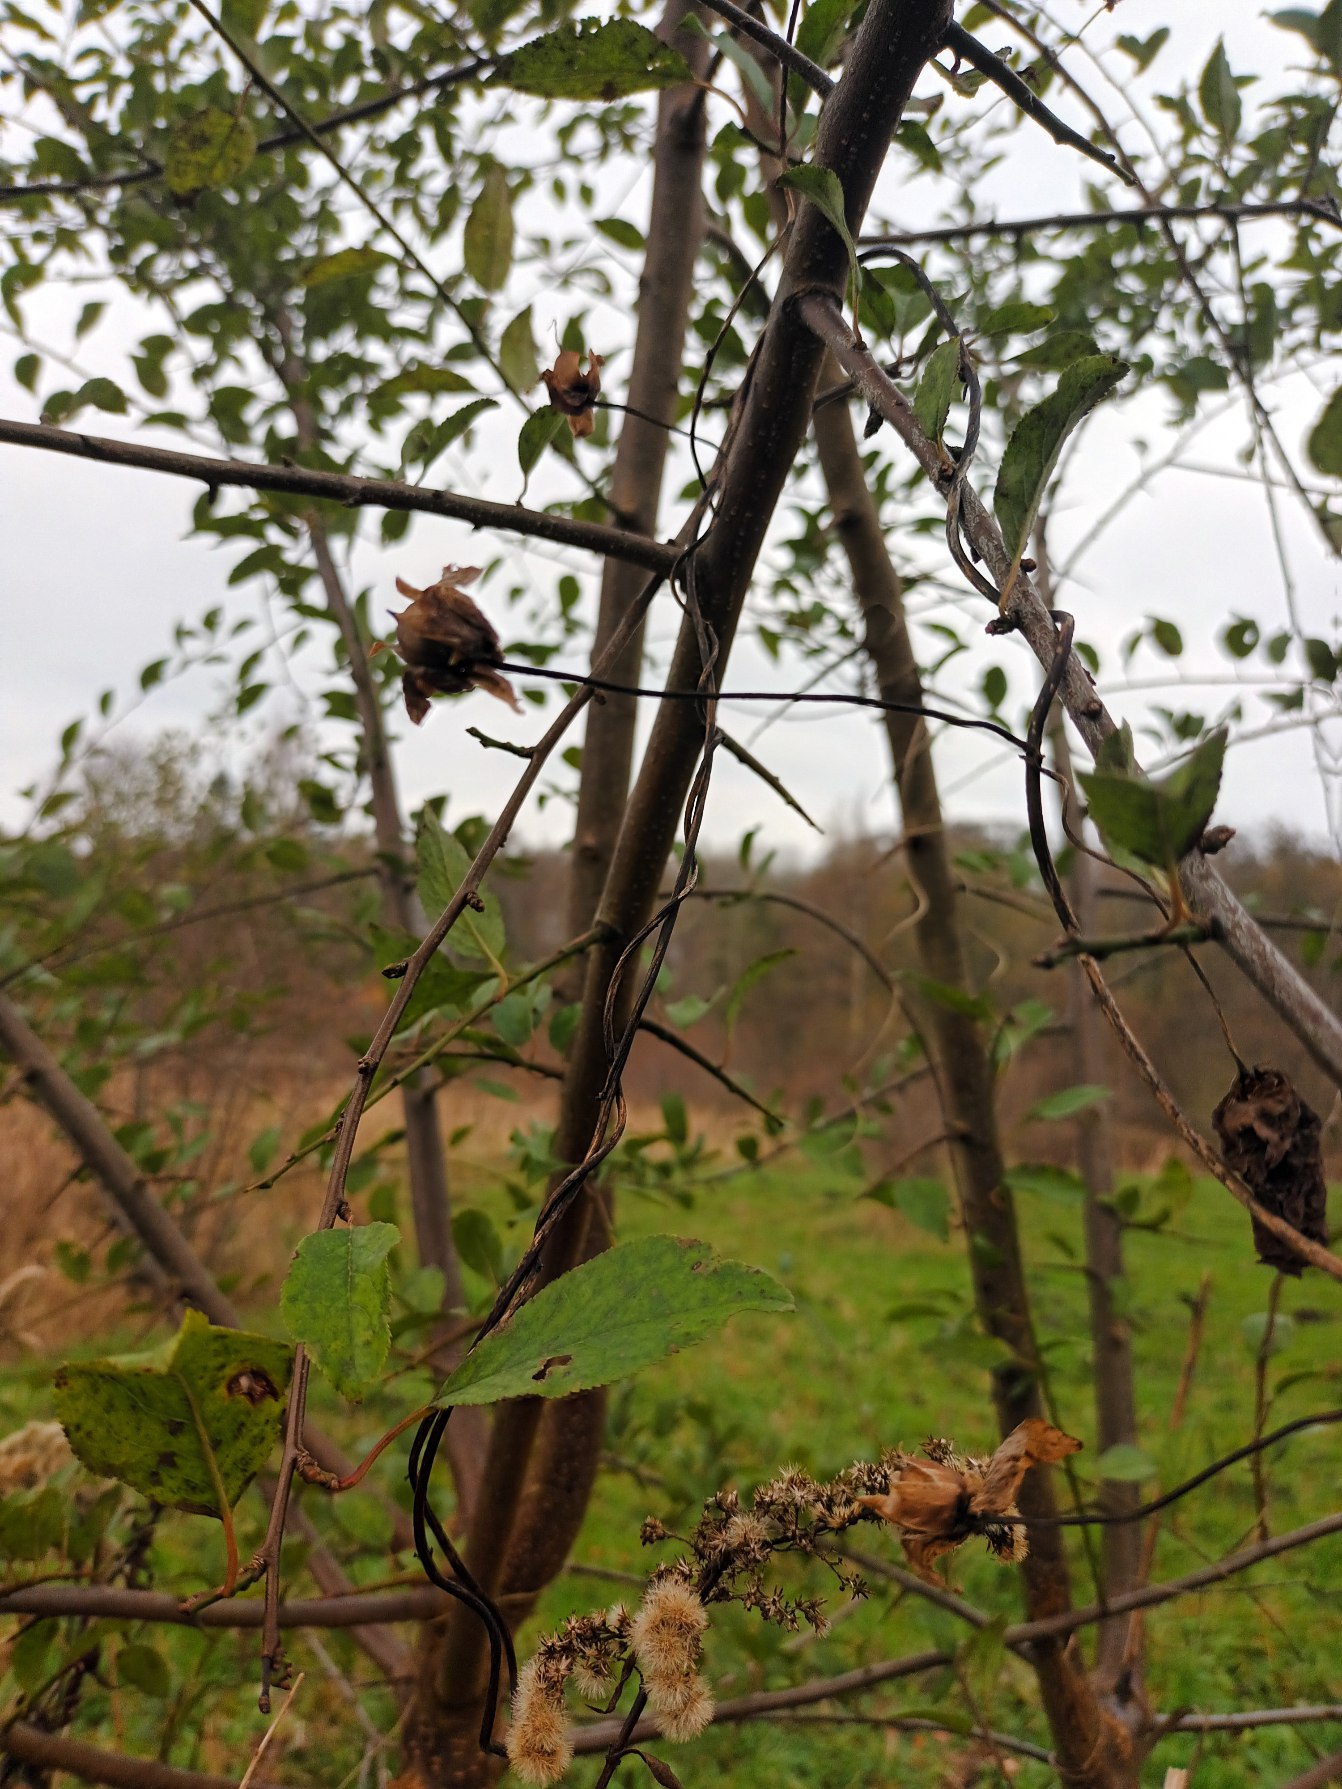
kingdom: Plantae
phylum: Tracheophyta
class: Magnoliopsida
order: Solanales
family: Convolvulaceae
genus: Calystegia
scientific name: Calystegia sepium
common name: Gærde-snerle
